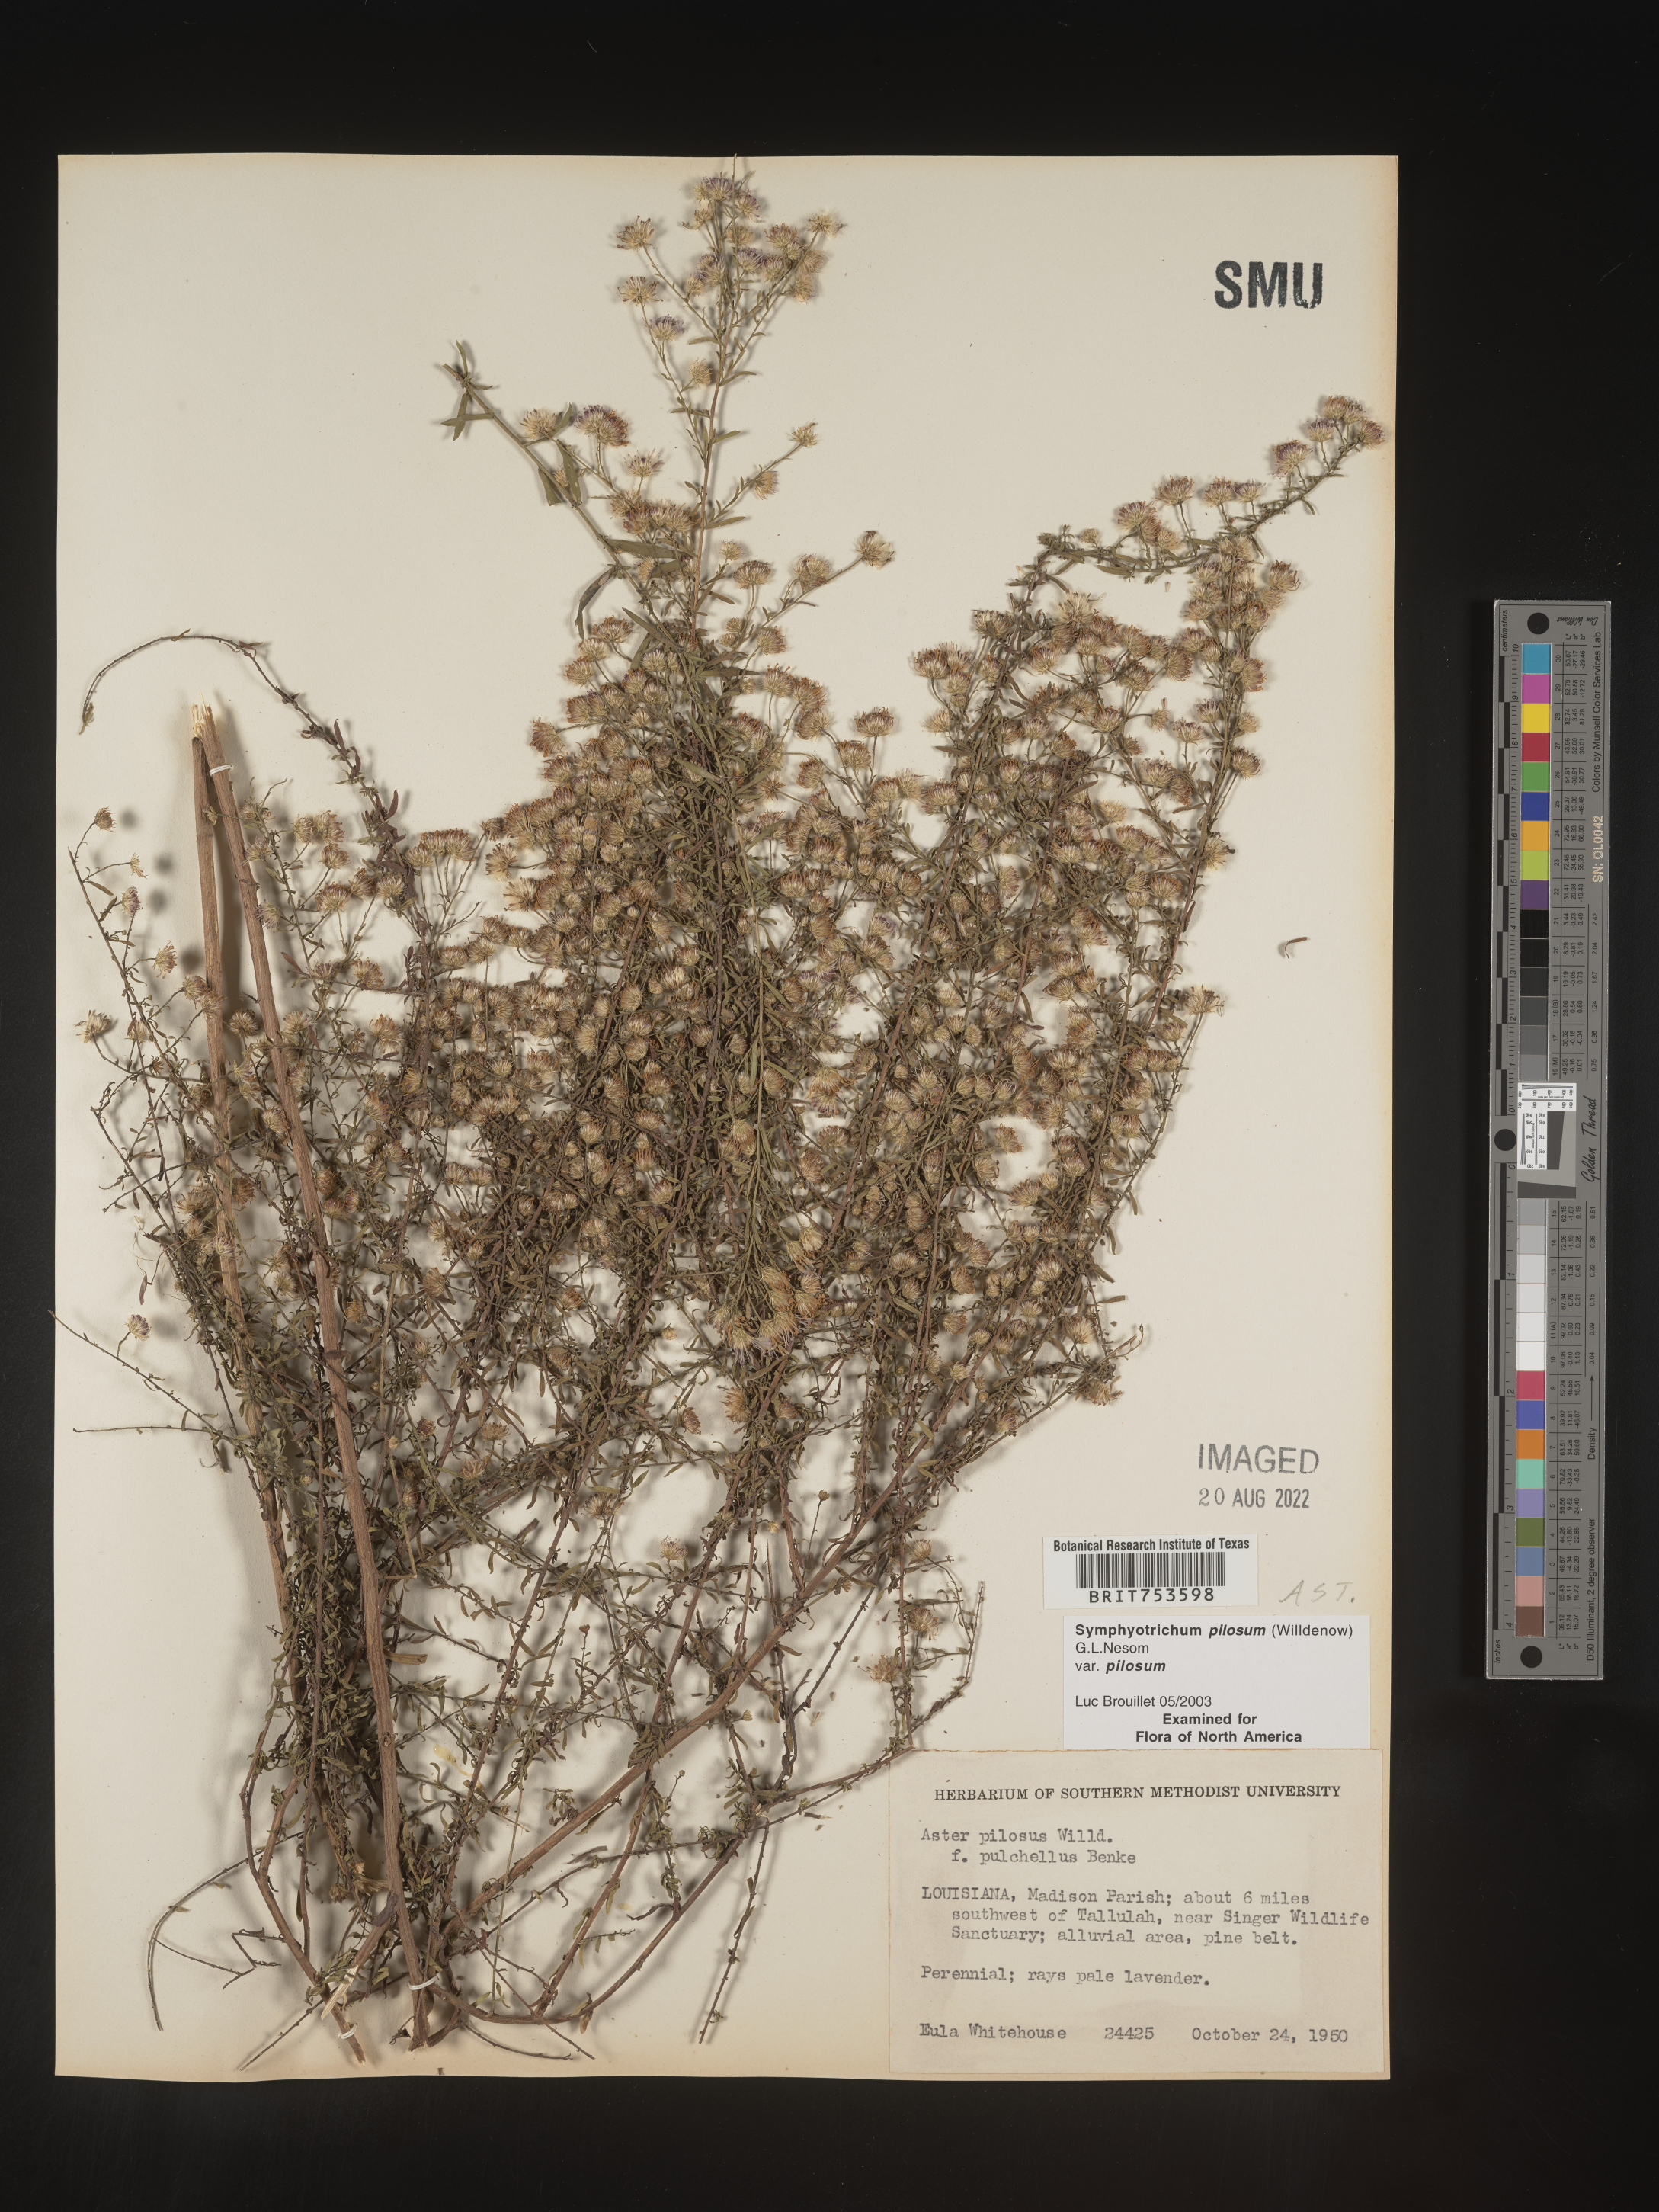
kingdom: Plantae
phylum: Tracheophyta
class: Magnoliopsida
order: Asterales
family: Asteraceae
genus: Symphyotrichum
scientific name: Symphyotrichum pilosum
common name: Awl aster
